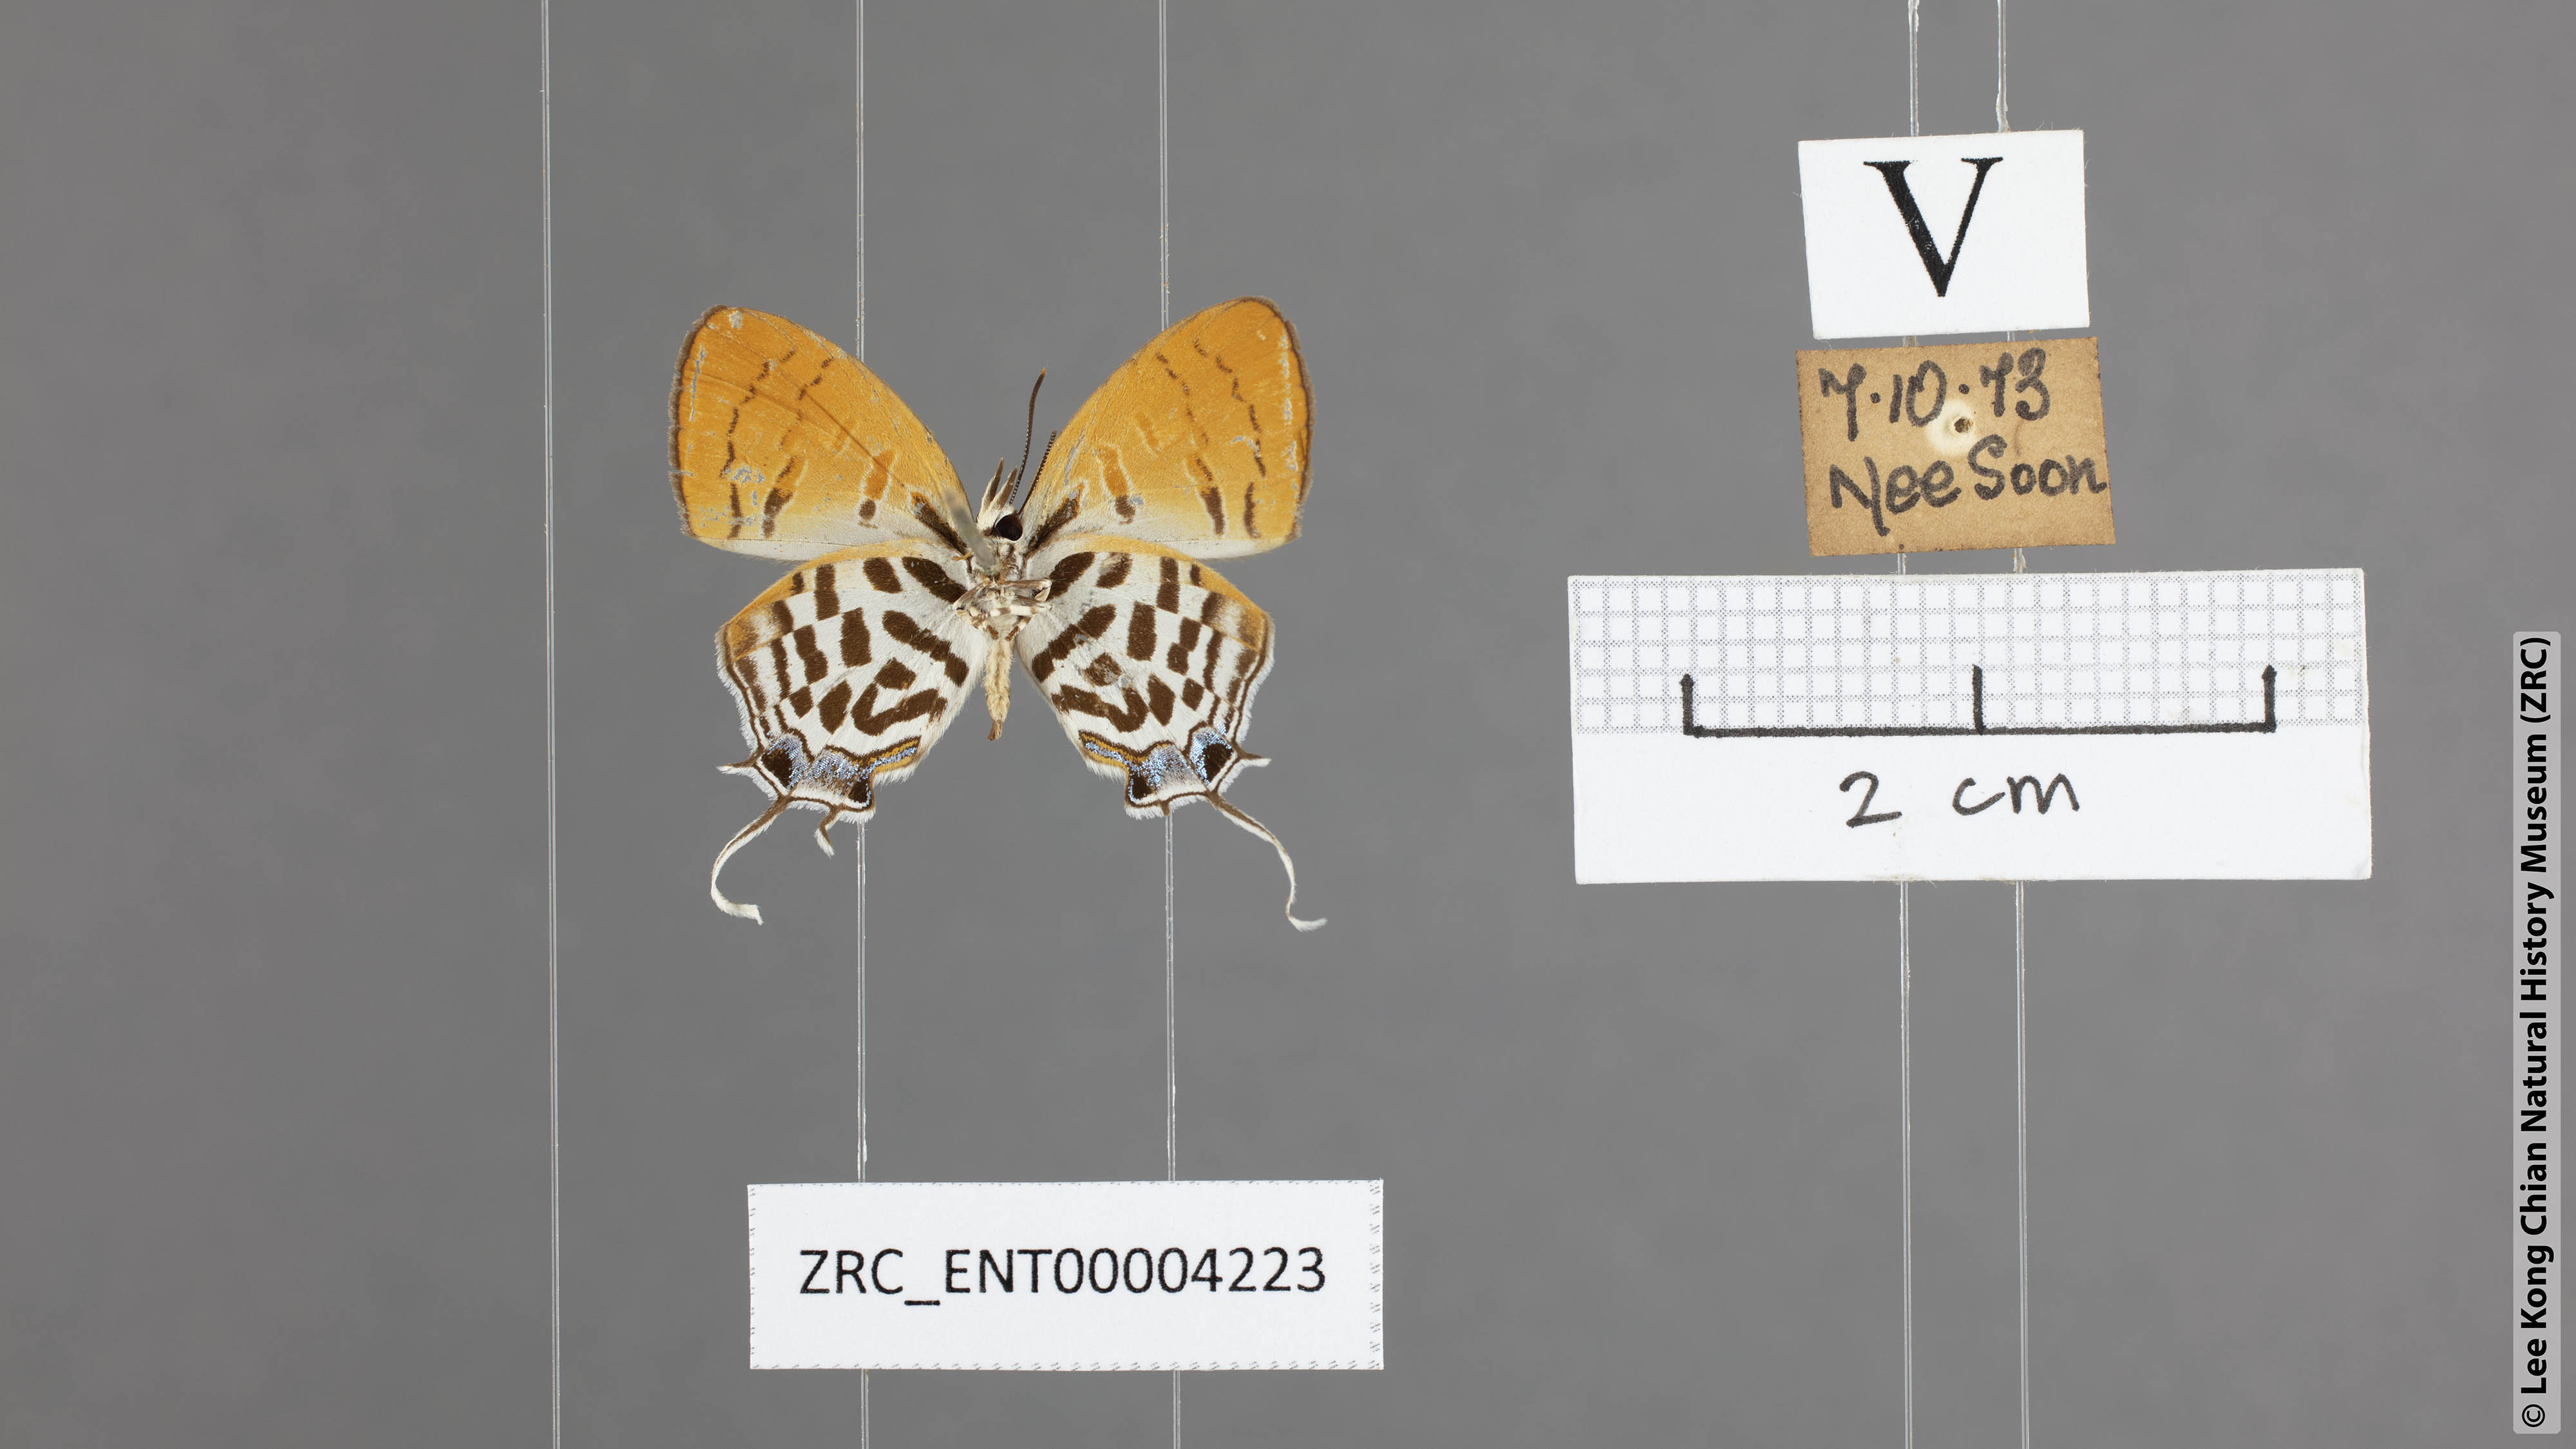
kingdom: Animalia
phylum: Arthropoda
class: Insecta
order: Lepidoptera
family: Lycaenidae
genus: Drupadia
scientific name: Drupadia rufotaenia
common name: Pygmy posy
